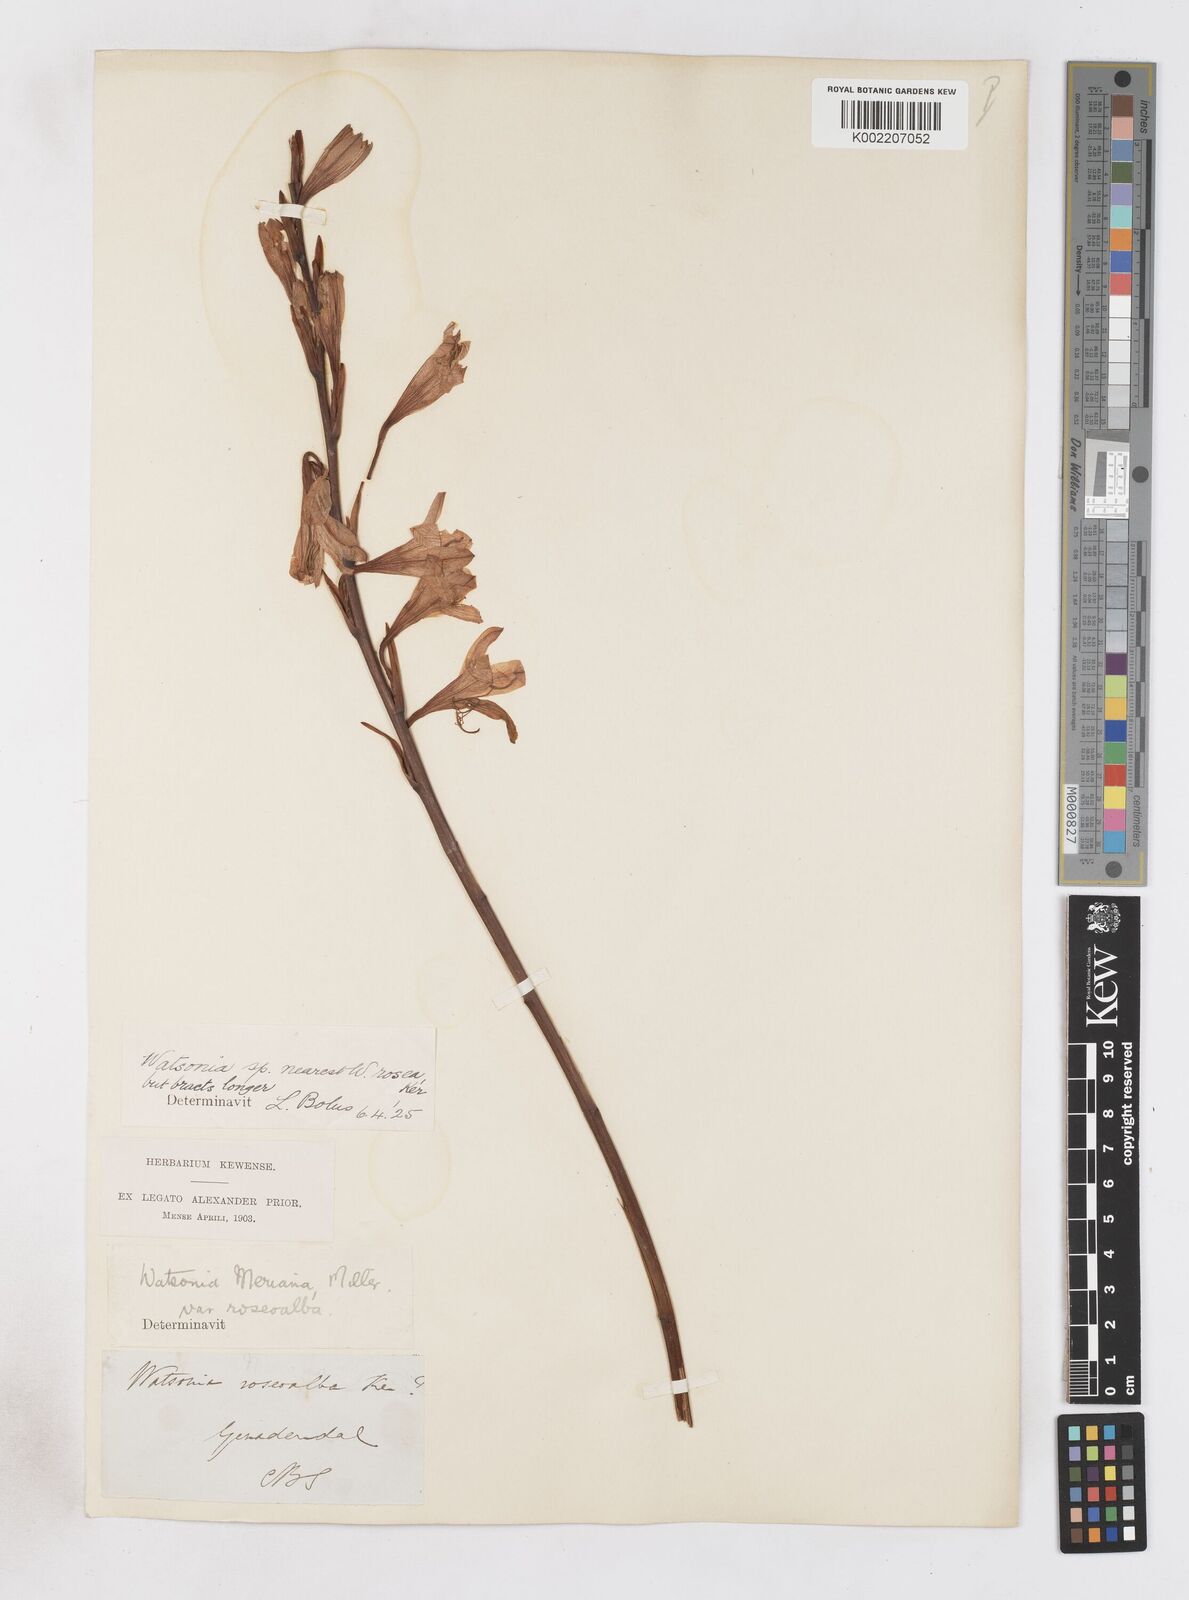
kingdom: Plantae
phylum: Tracheophyta
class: Liliopsida
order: Asparagales
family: Iridaceae
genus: Watsonia
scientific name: Watsonia borbonica
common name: Bugle-lily
